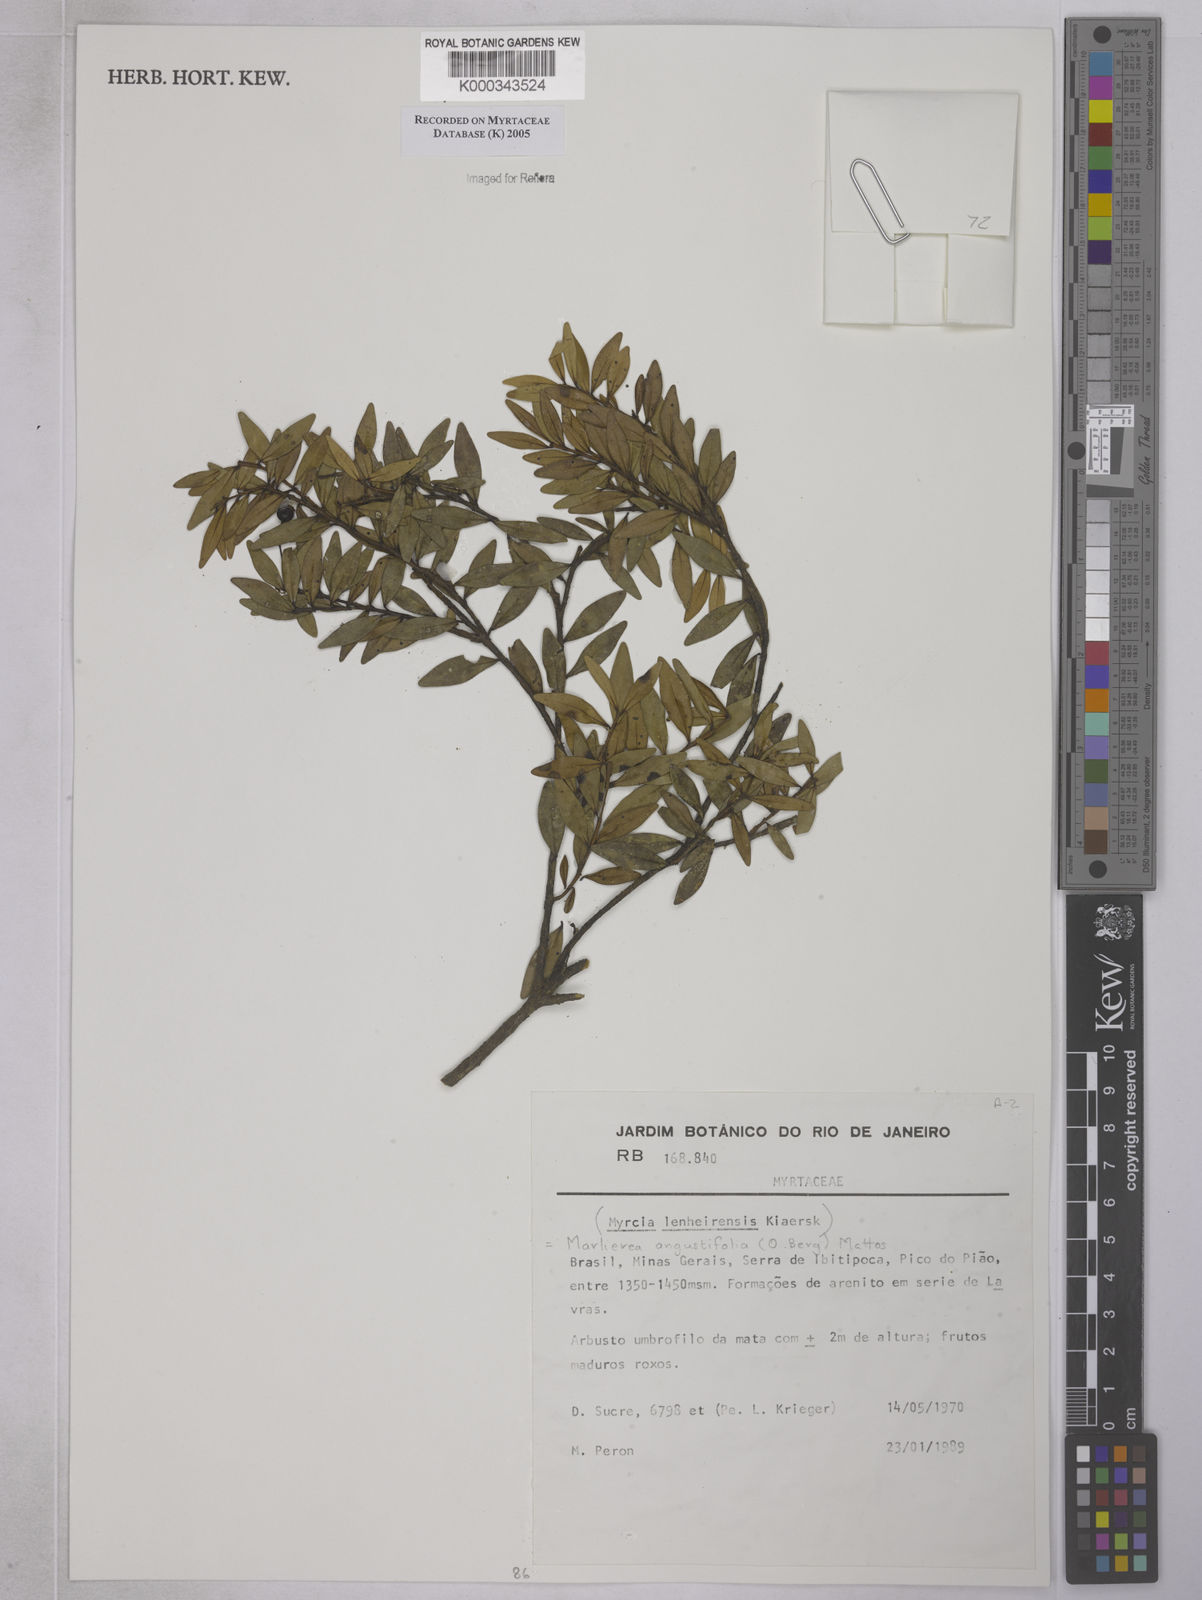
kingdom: Plantae
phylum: Tracheophyta
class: Magnoliopsida
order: Myrtales
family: Myrtaceae
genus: Myrcia
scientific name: Myrcia lenheirensis
